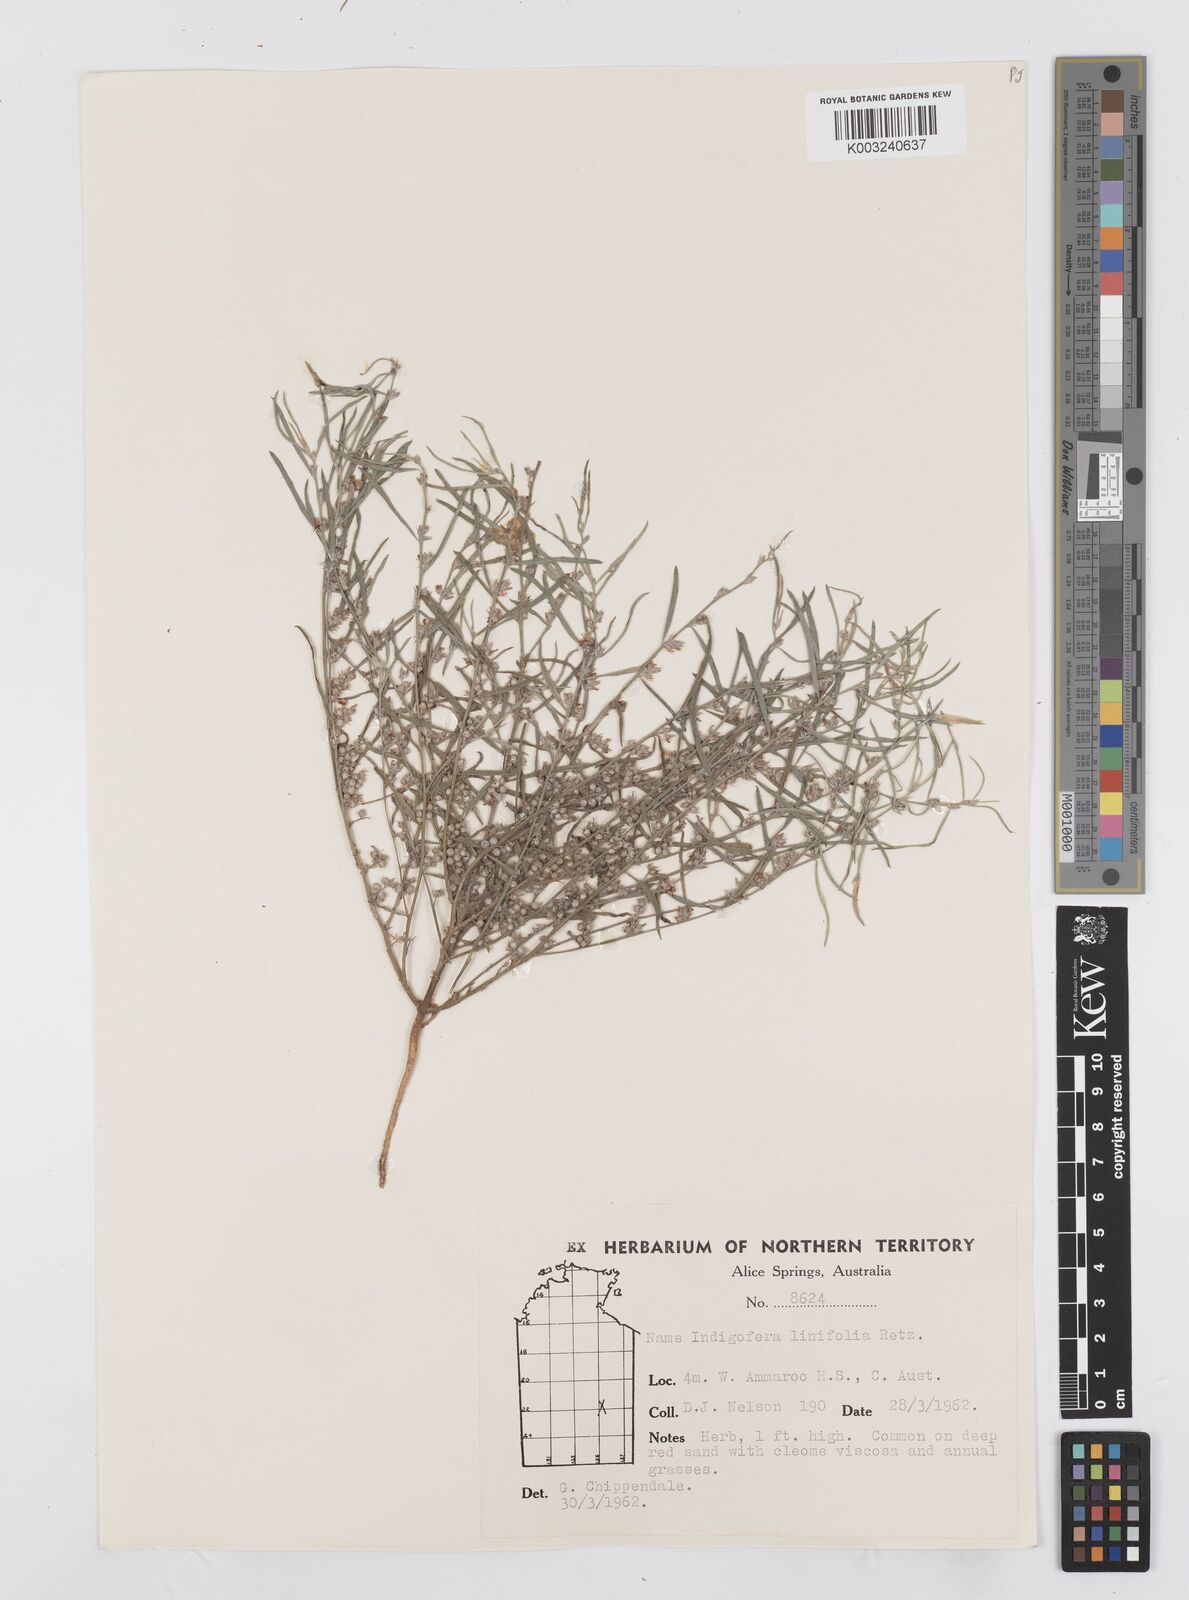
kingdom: Plantae
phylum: Tracheophyta
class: Magnoliopsida
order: Fabales
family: Fabaceae
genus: Indigofera
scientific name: Indigofera linifolia
